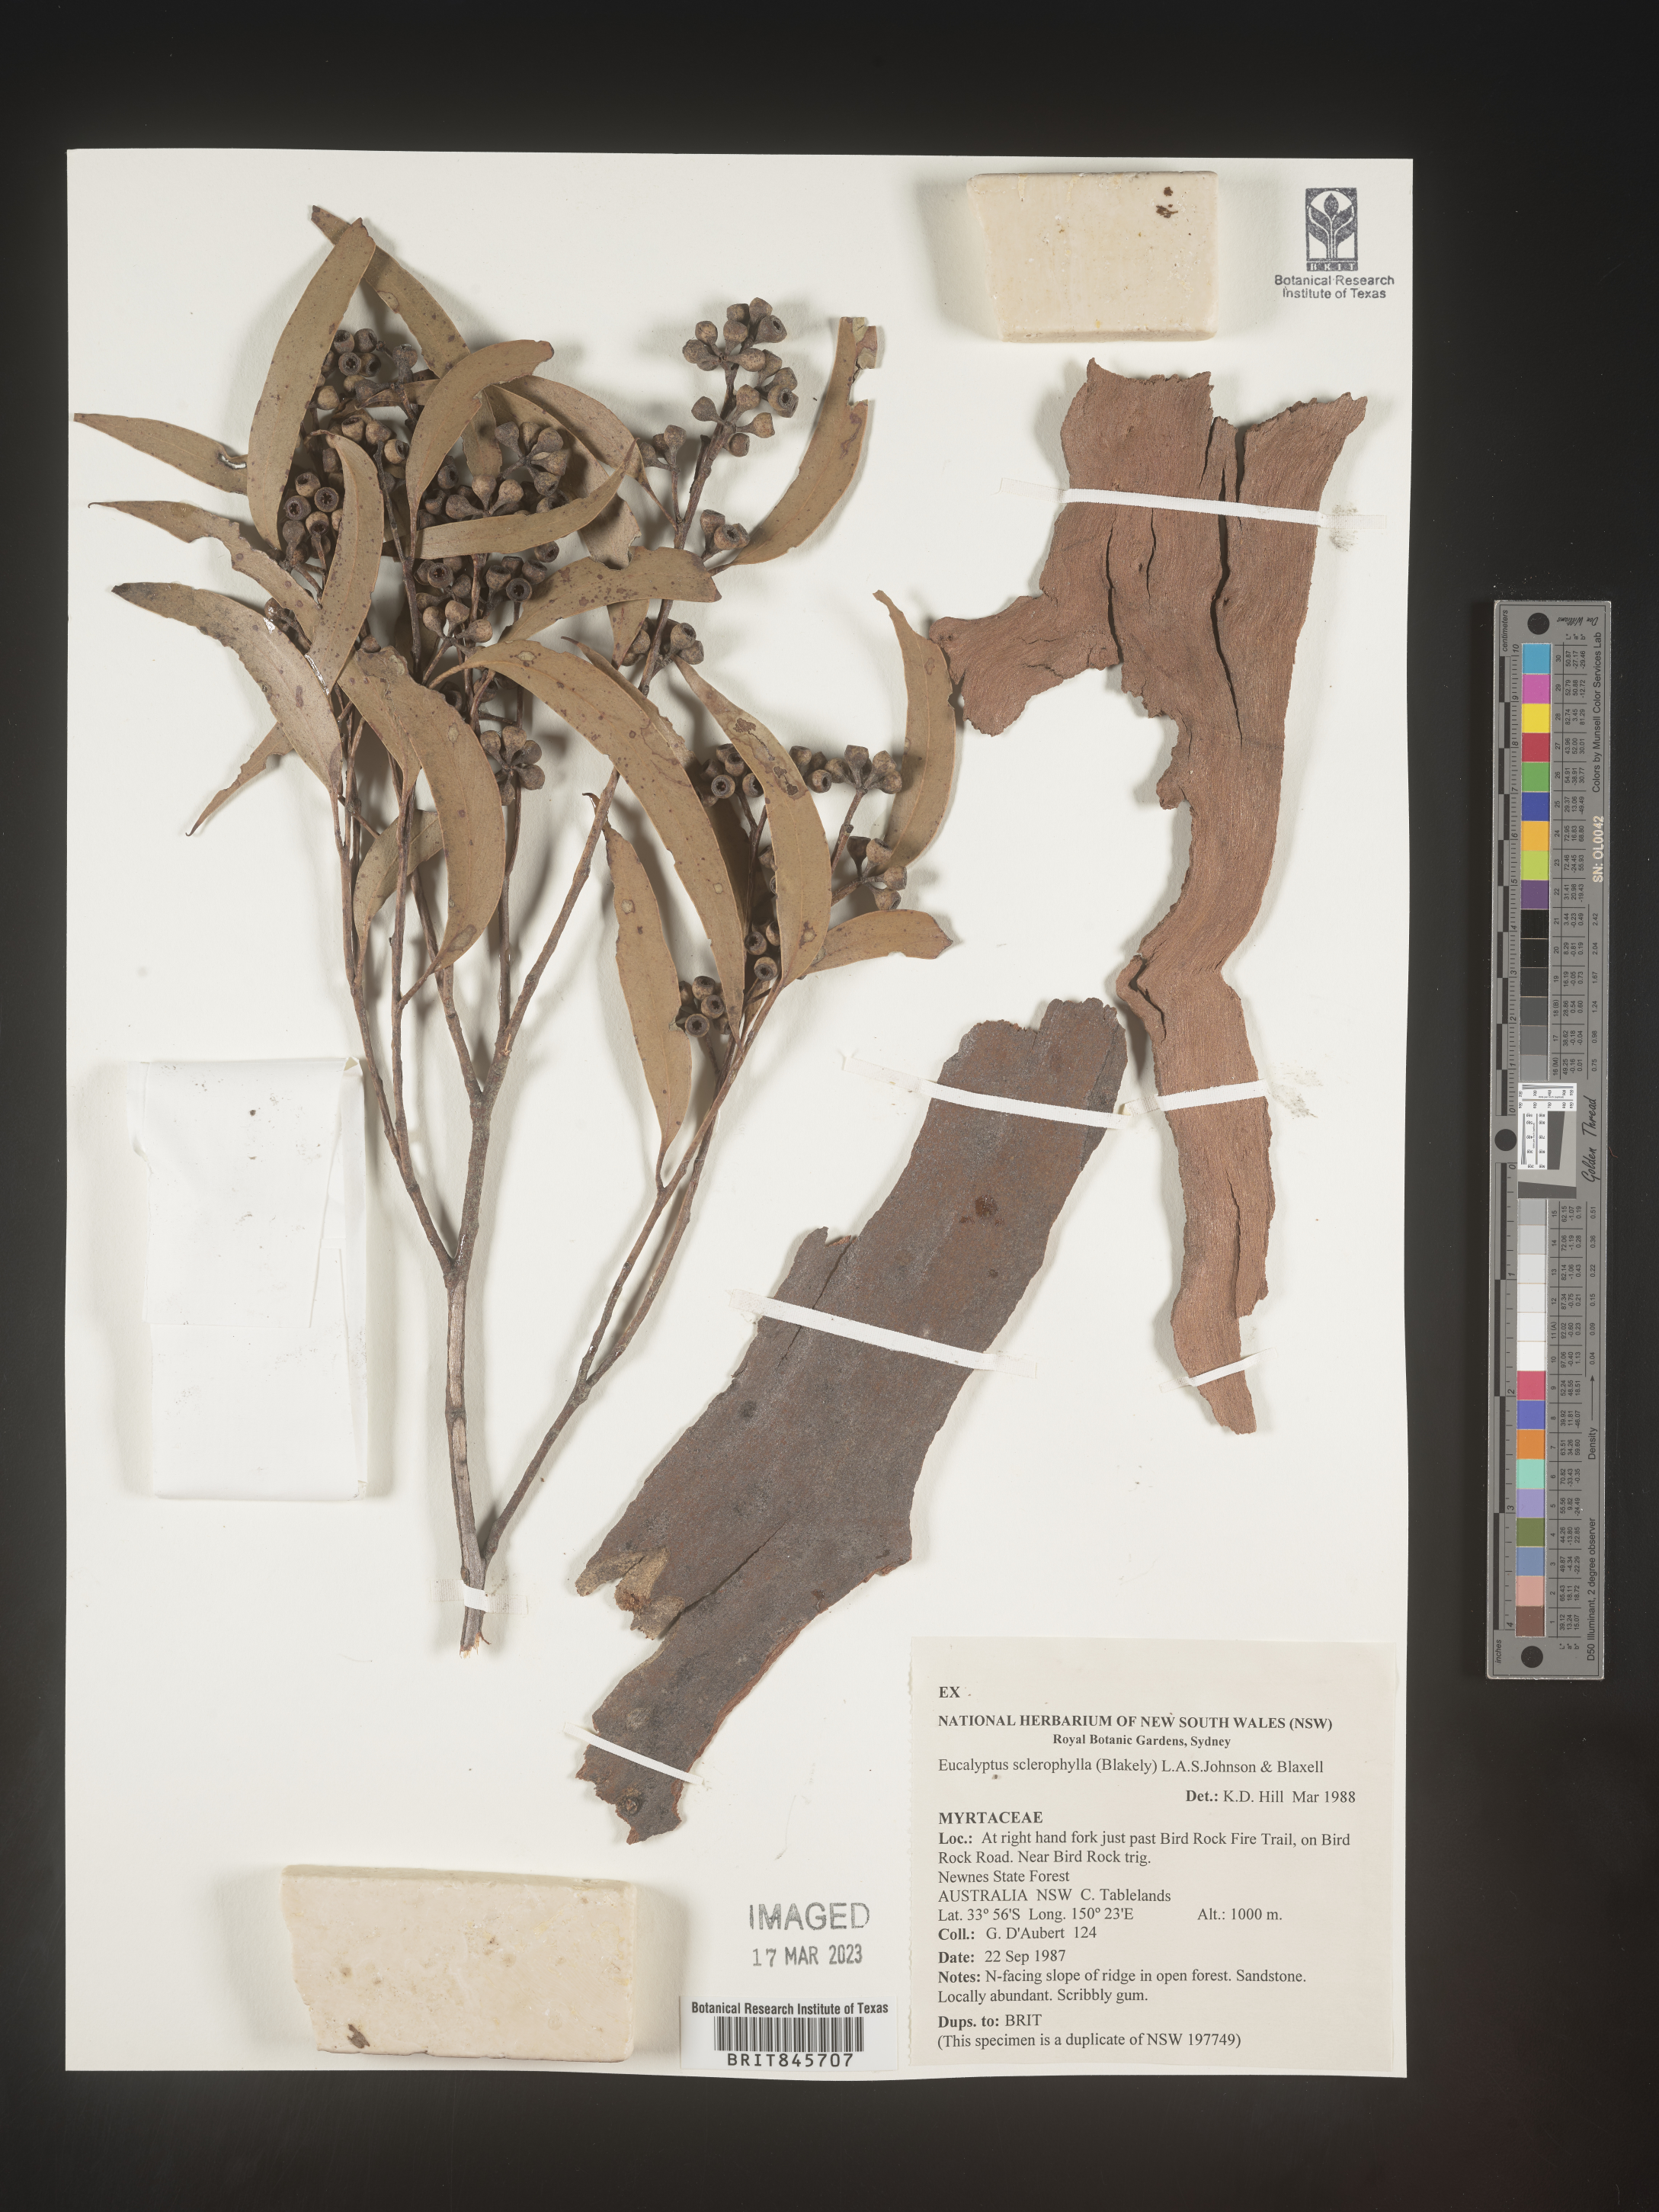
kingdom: Plantae
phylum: Tracheophyta
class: Magnoliopsida
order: Myrtales
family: Myrtaceae
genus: Eucalyptus
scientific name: Eucalyptus
